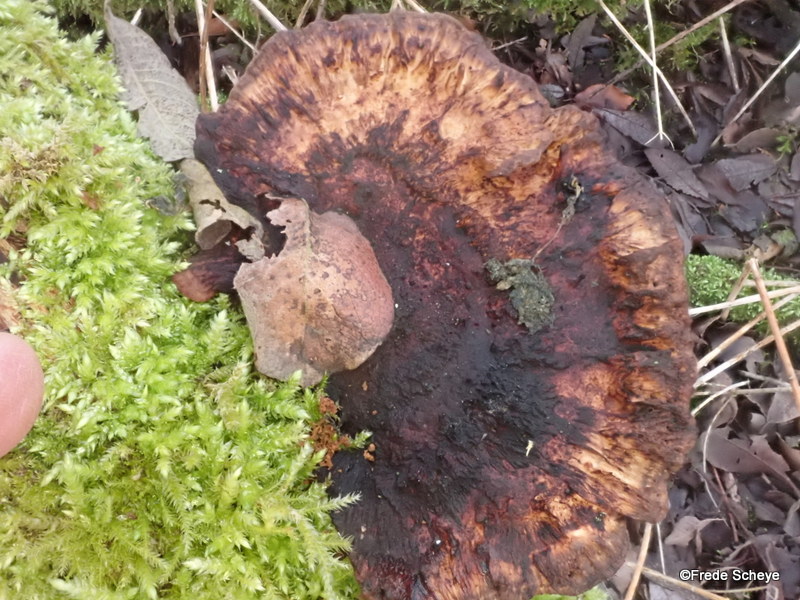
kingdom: Fungi
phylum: Basidiomycota
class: Agaricomycetes
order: Polyporales
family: Polyporaceae
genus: Daedaleopsis
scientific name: Daedaleopsis confragosa
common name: rødmende læderporesvamp
